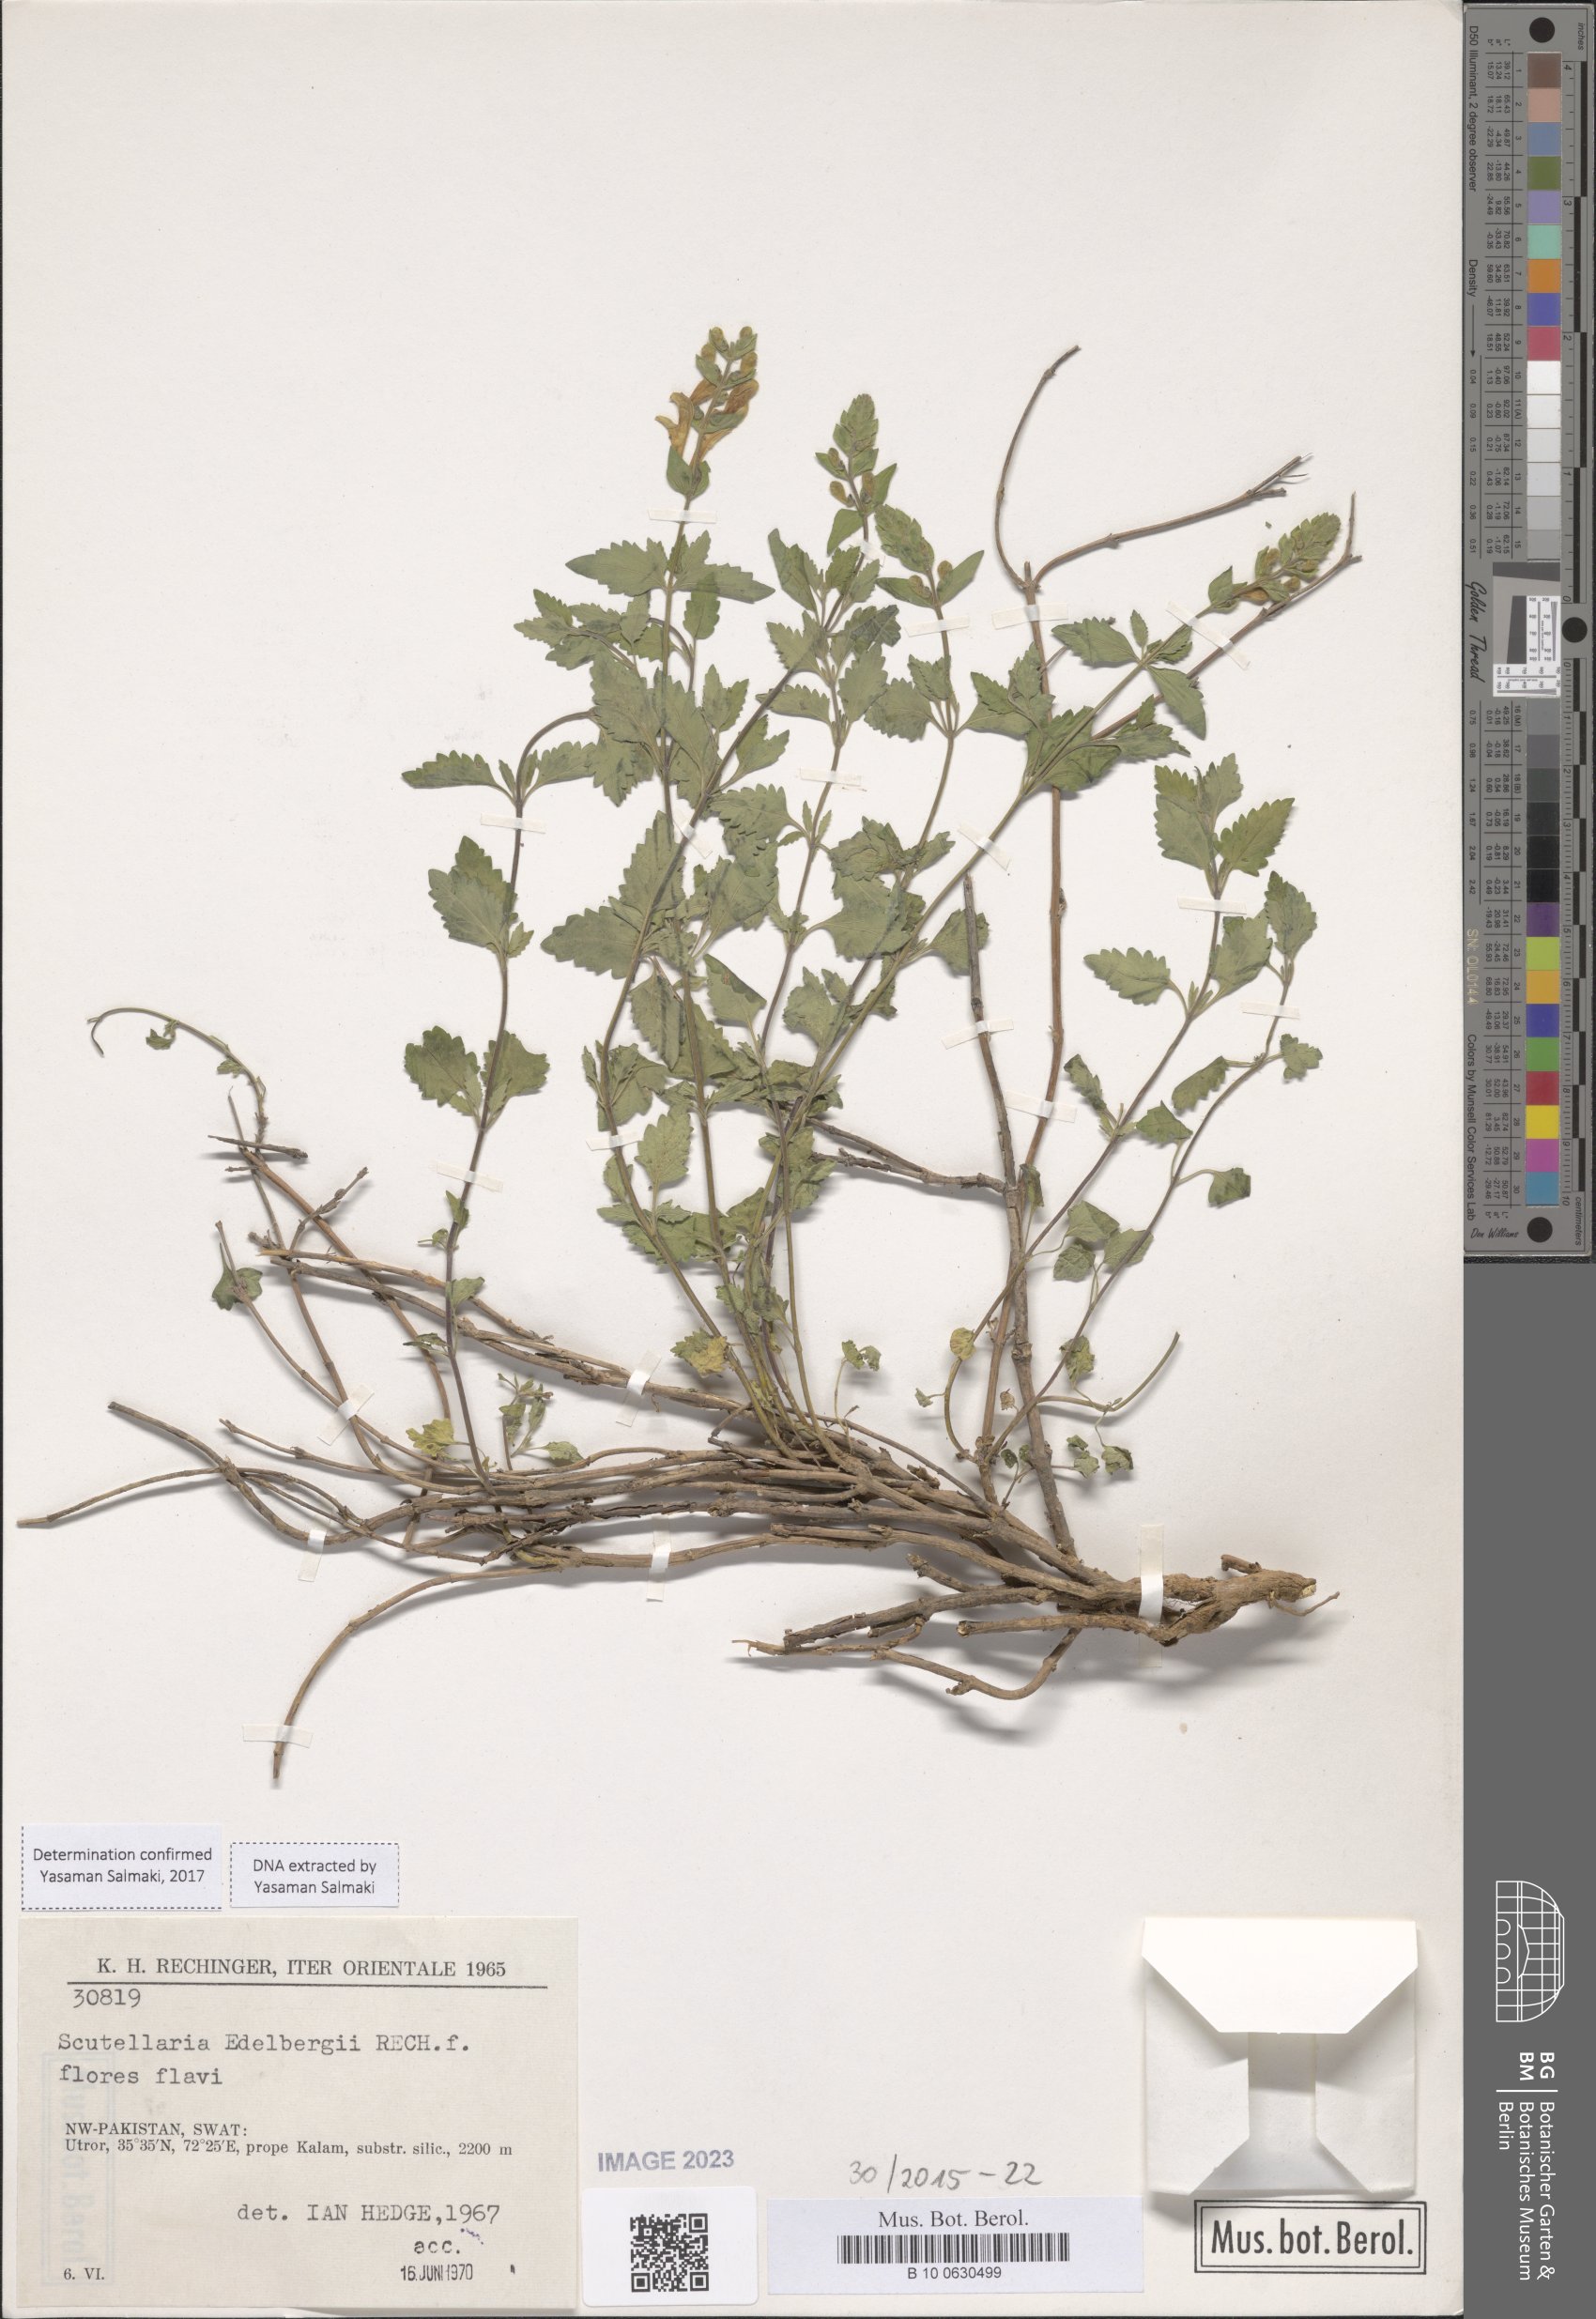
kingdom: Plantae
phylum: Tracheophyta
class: Magnoliopsida
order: Lamiales
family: Lamiaceae
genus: Scutellaria
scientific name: Scutellaria edelbergii
